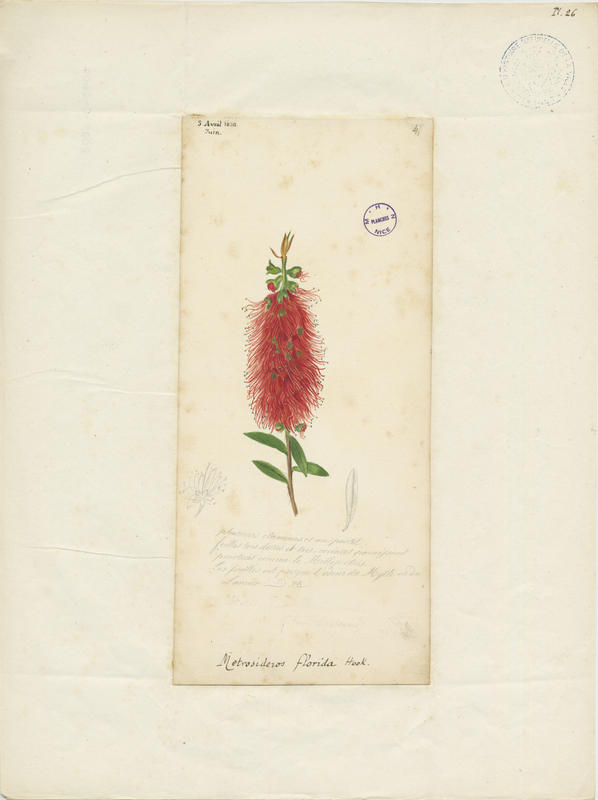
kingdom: Plantae
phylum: Tracheophyta
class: Magnoliopsida
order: Myrtales
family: Myrtaceae
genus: Metrosideros
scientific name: Metrosideros robusta
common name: Northern rata
